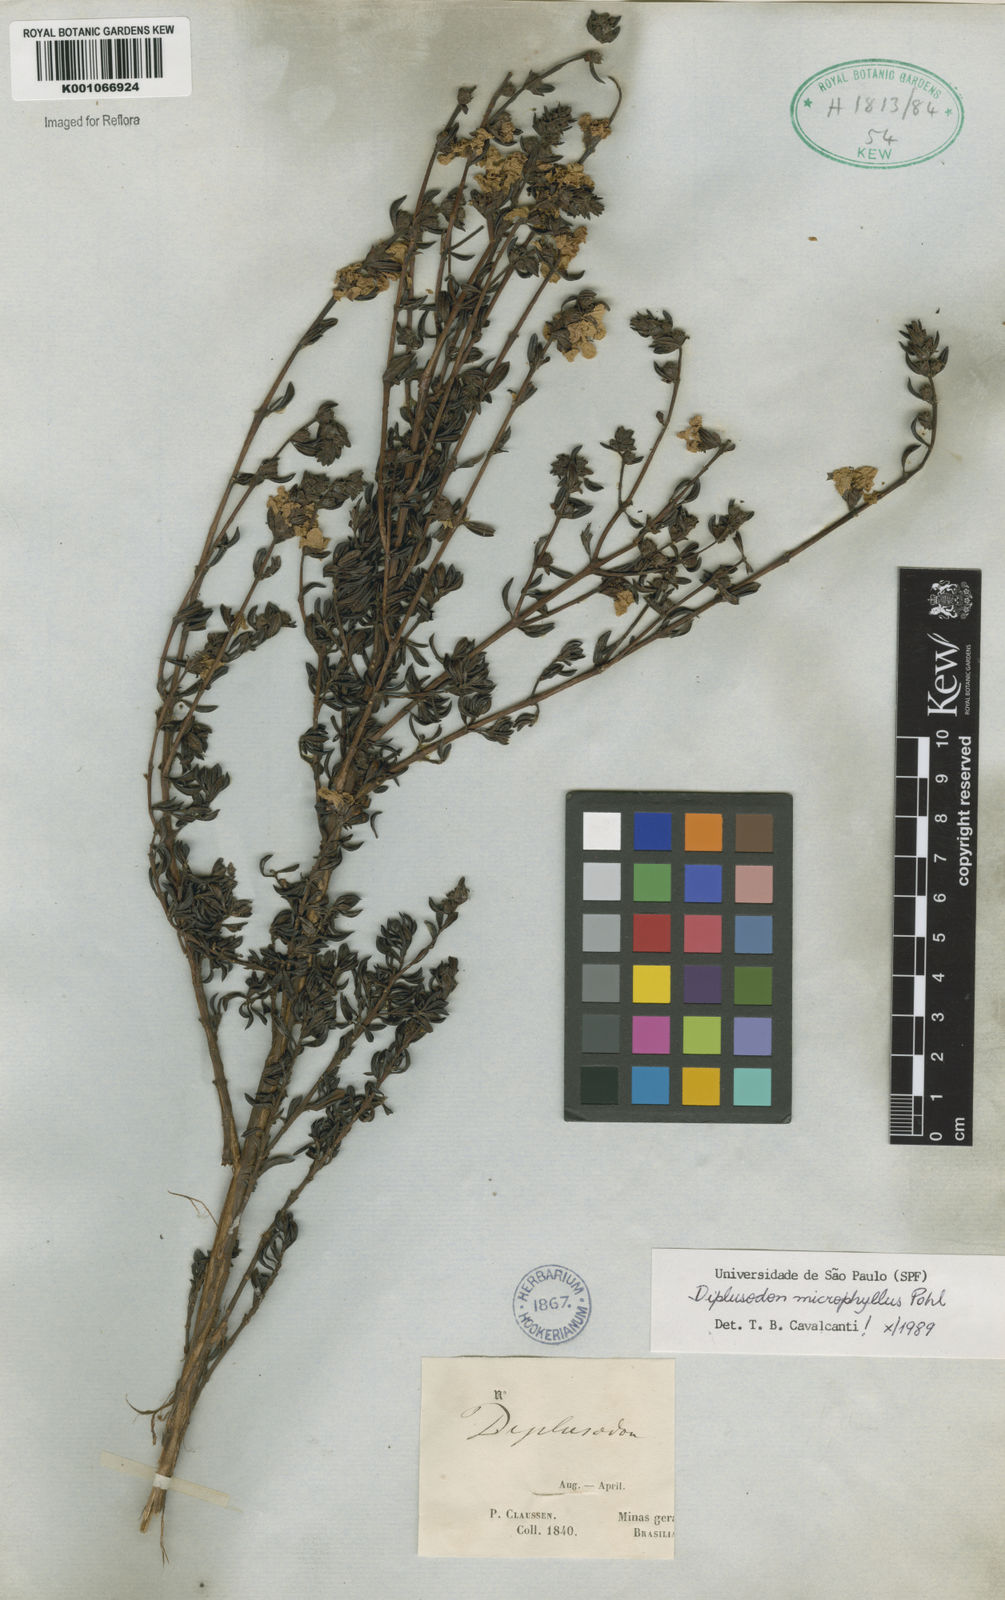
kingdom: Plantae
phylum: Tracheophyta
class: Magnoliopsida
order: Myrtales
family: Lythraceae
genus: Diplusodon
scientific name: Diplusodon microphyllus
